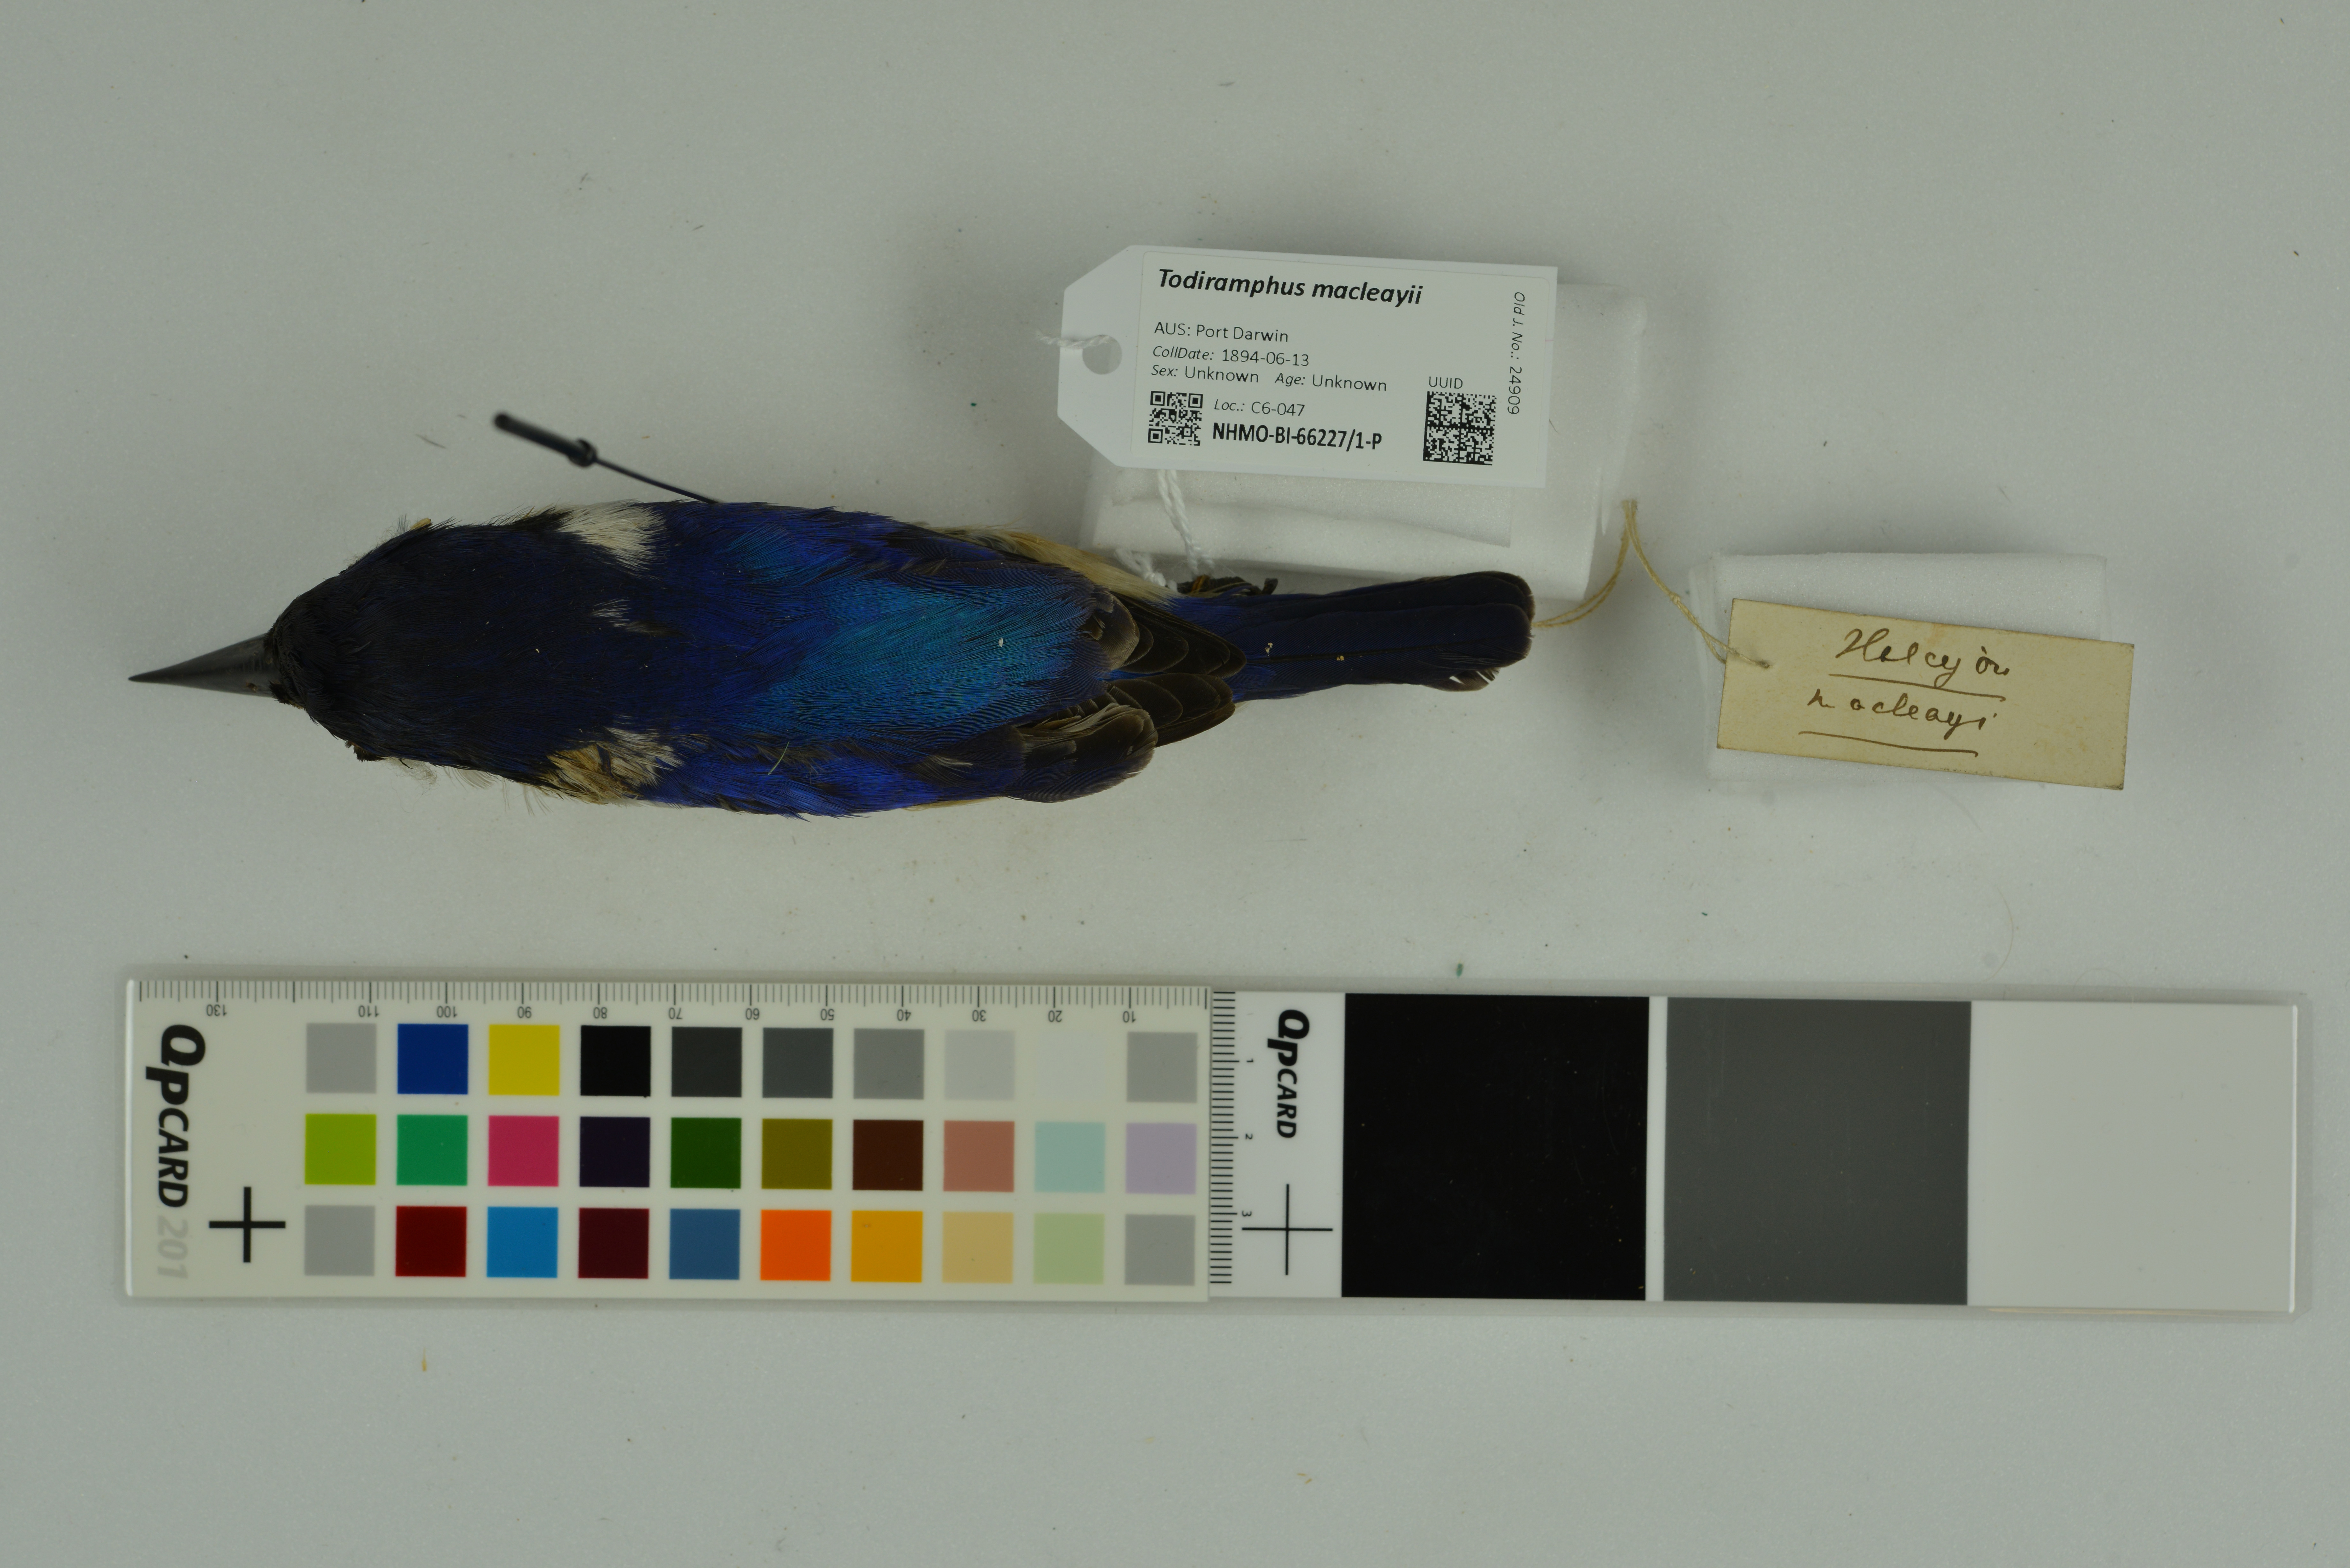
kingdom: Animalia
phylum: Chordata
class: Aves
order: Coraciiformes
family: Alcedinidae
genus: Todiramphus
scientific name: Todiramphus macleayii
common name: Forest kingfisher
